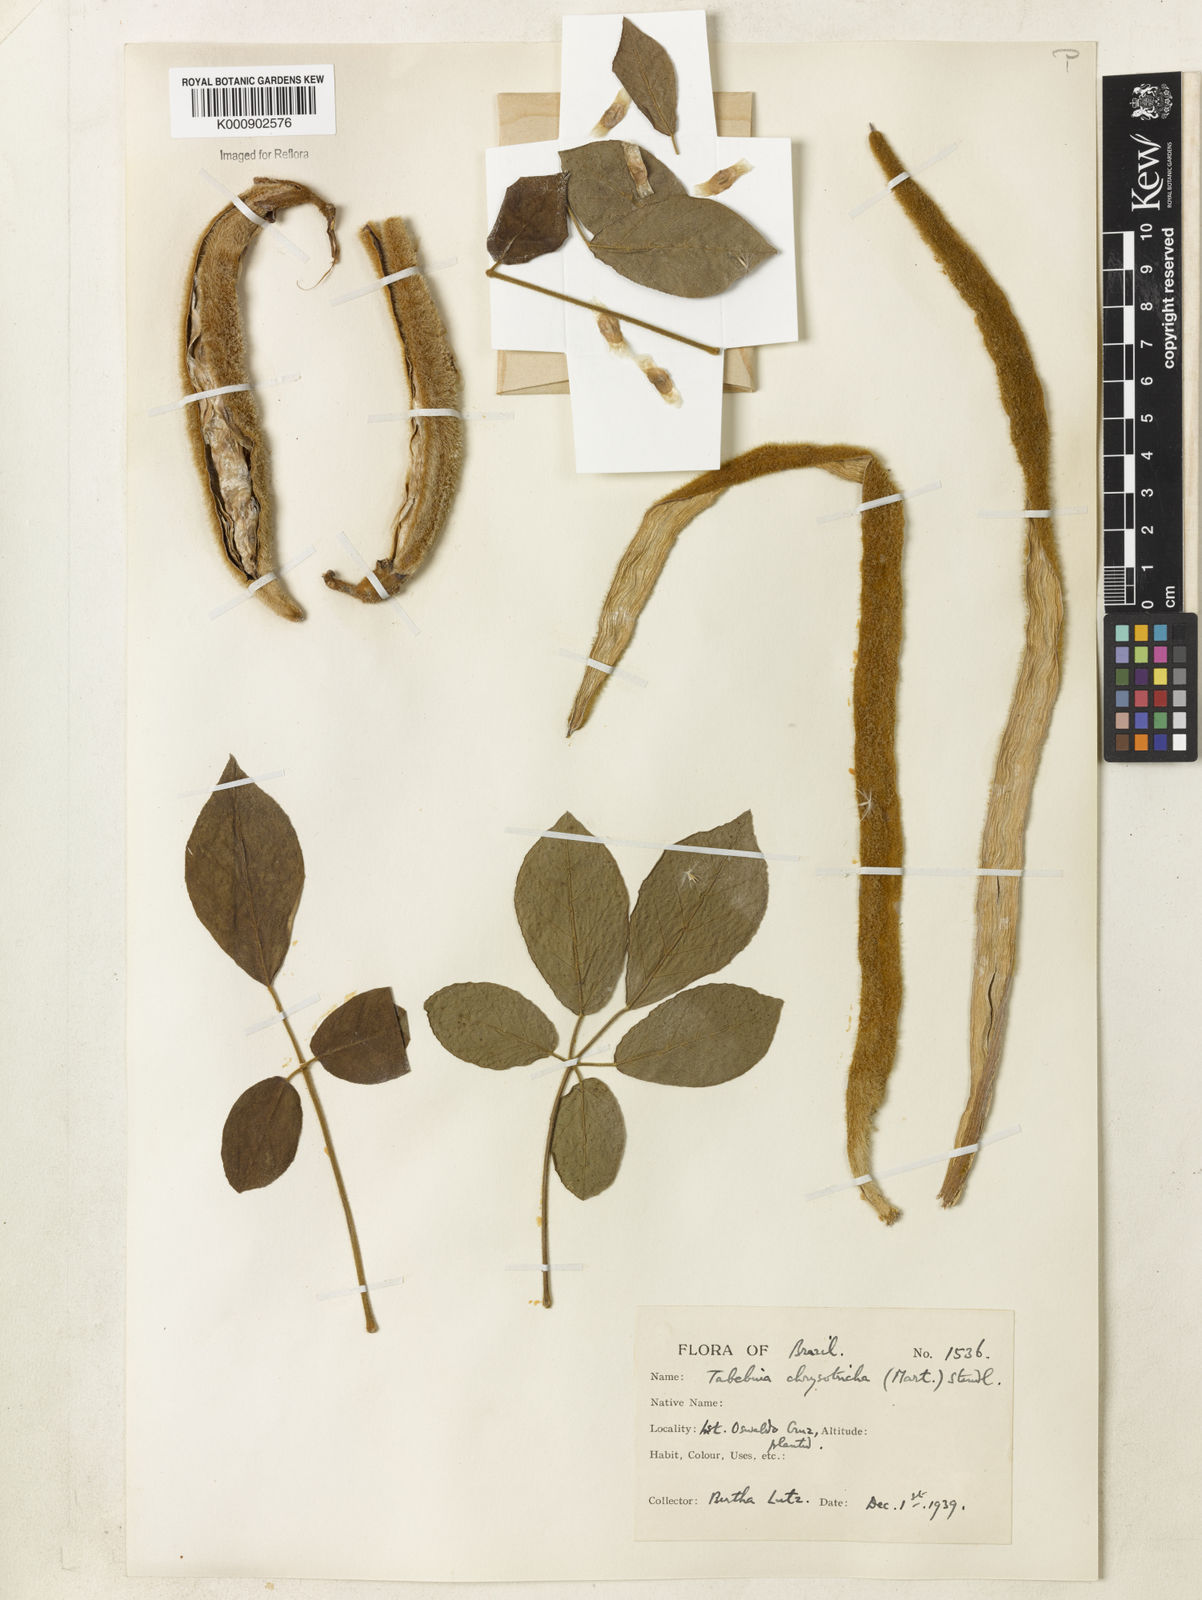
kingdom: Plantae
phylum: Tracheophyta
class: Magnoliopsida
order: Lamiales
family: Bignoniaceae
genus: Handroanthus
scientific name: Handroanthus chrysotrichus
